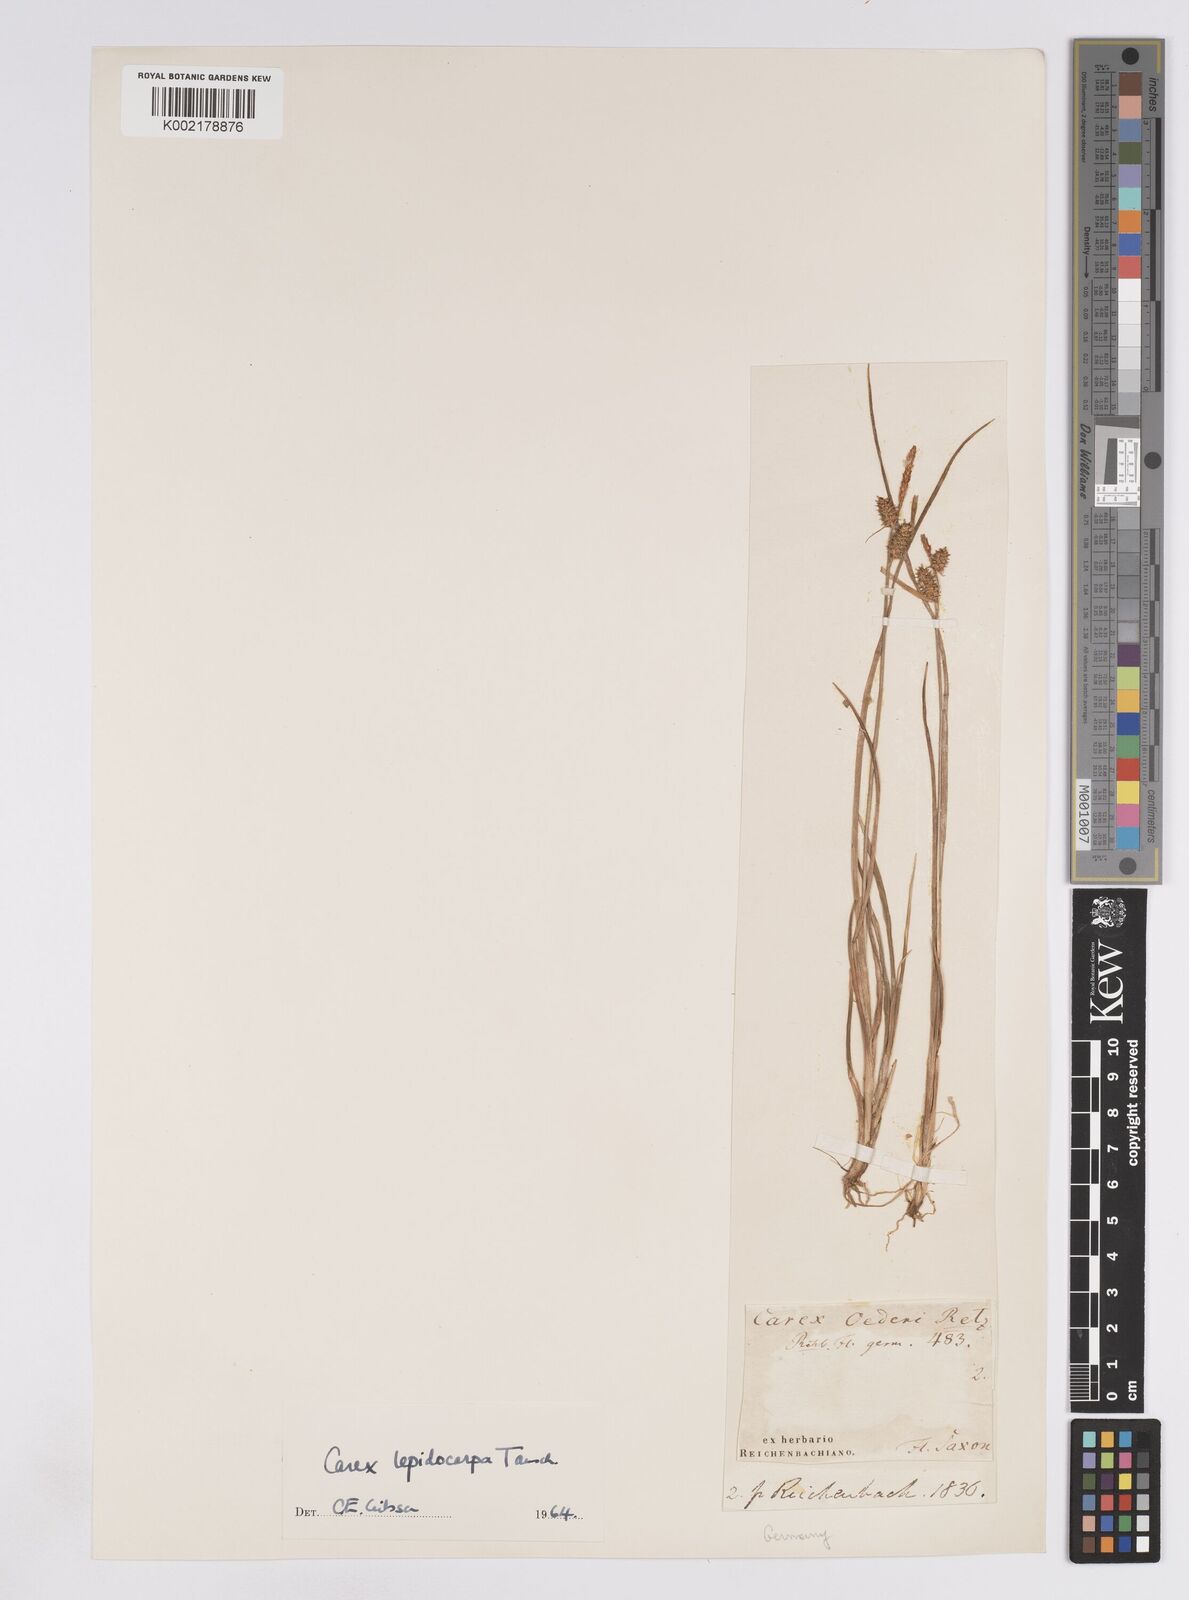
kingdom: Plantae
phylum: Tracheophyta
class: Liliopsida
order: Poales
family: Cyperaceae
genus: Carex
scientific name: Carex lepidocarpa
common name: Long-stalked yellow-sedge
